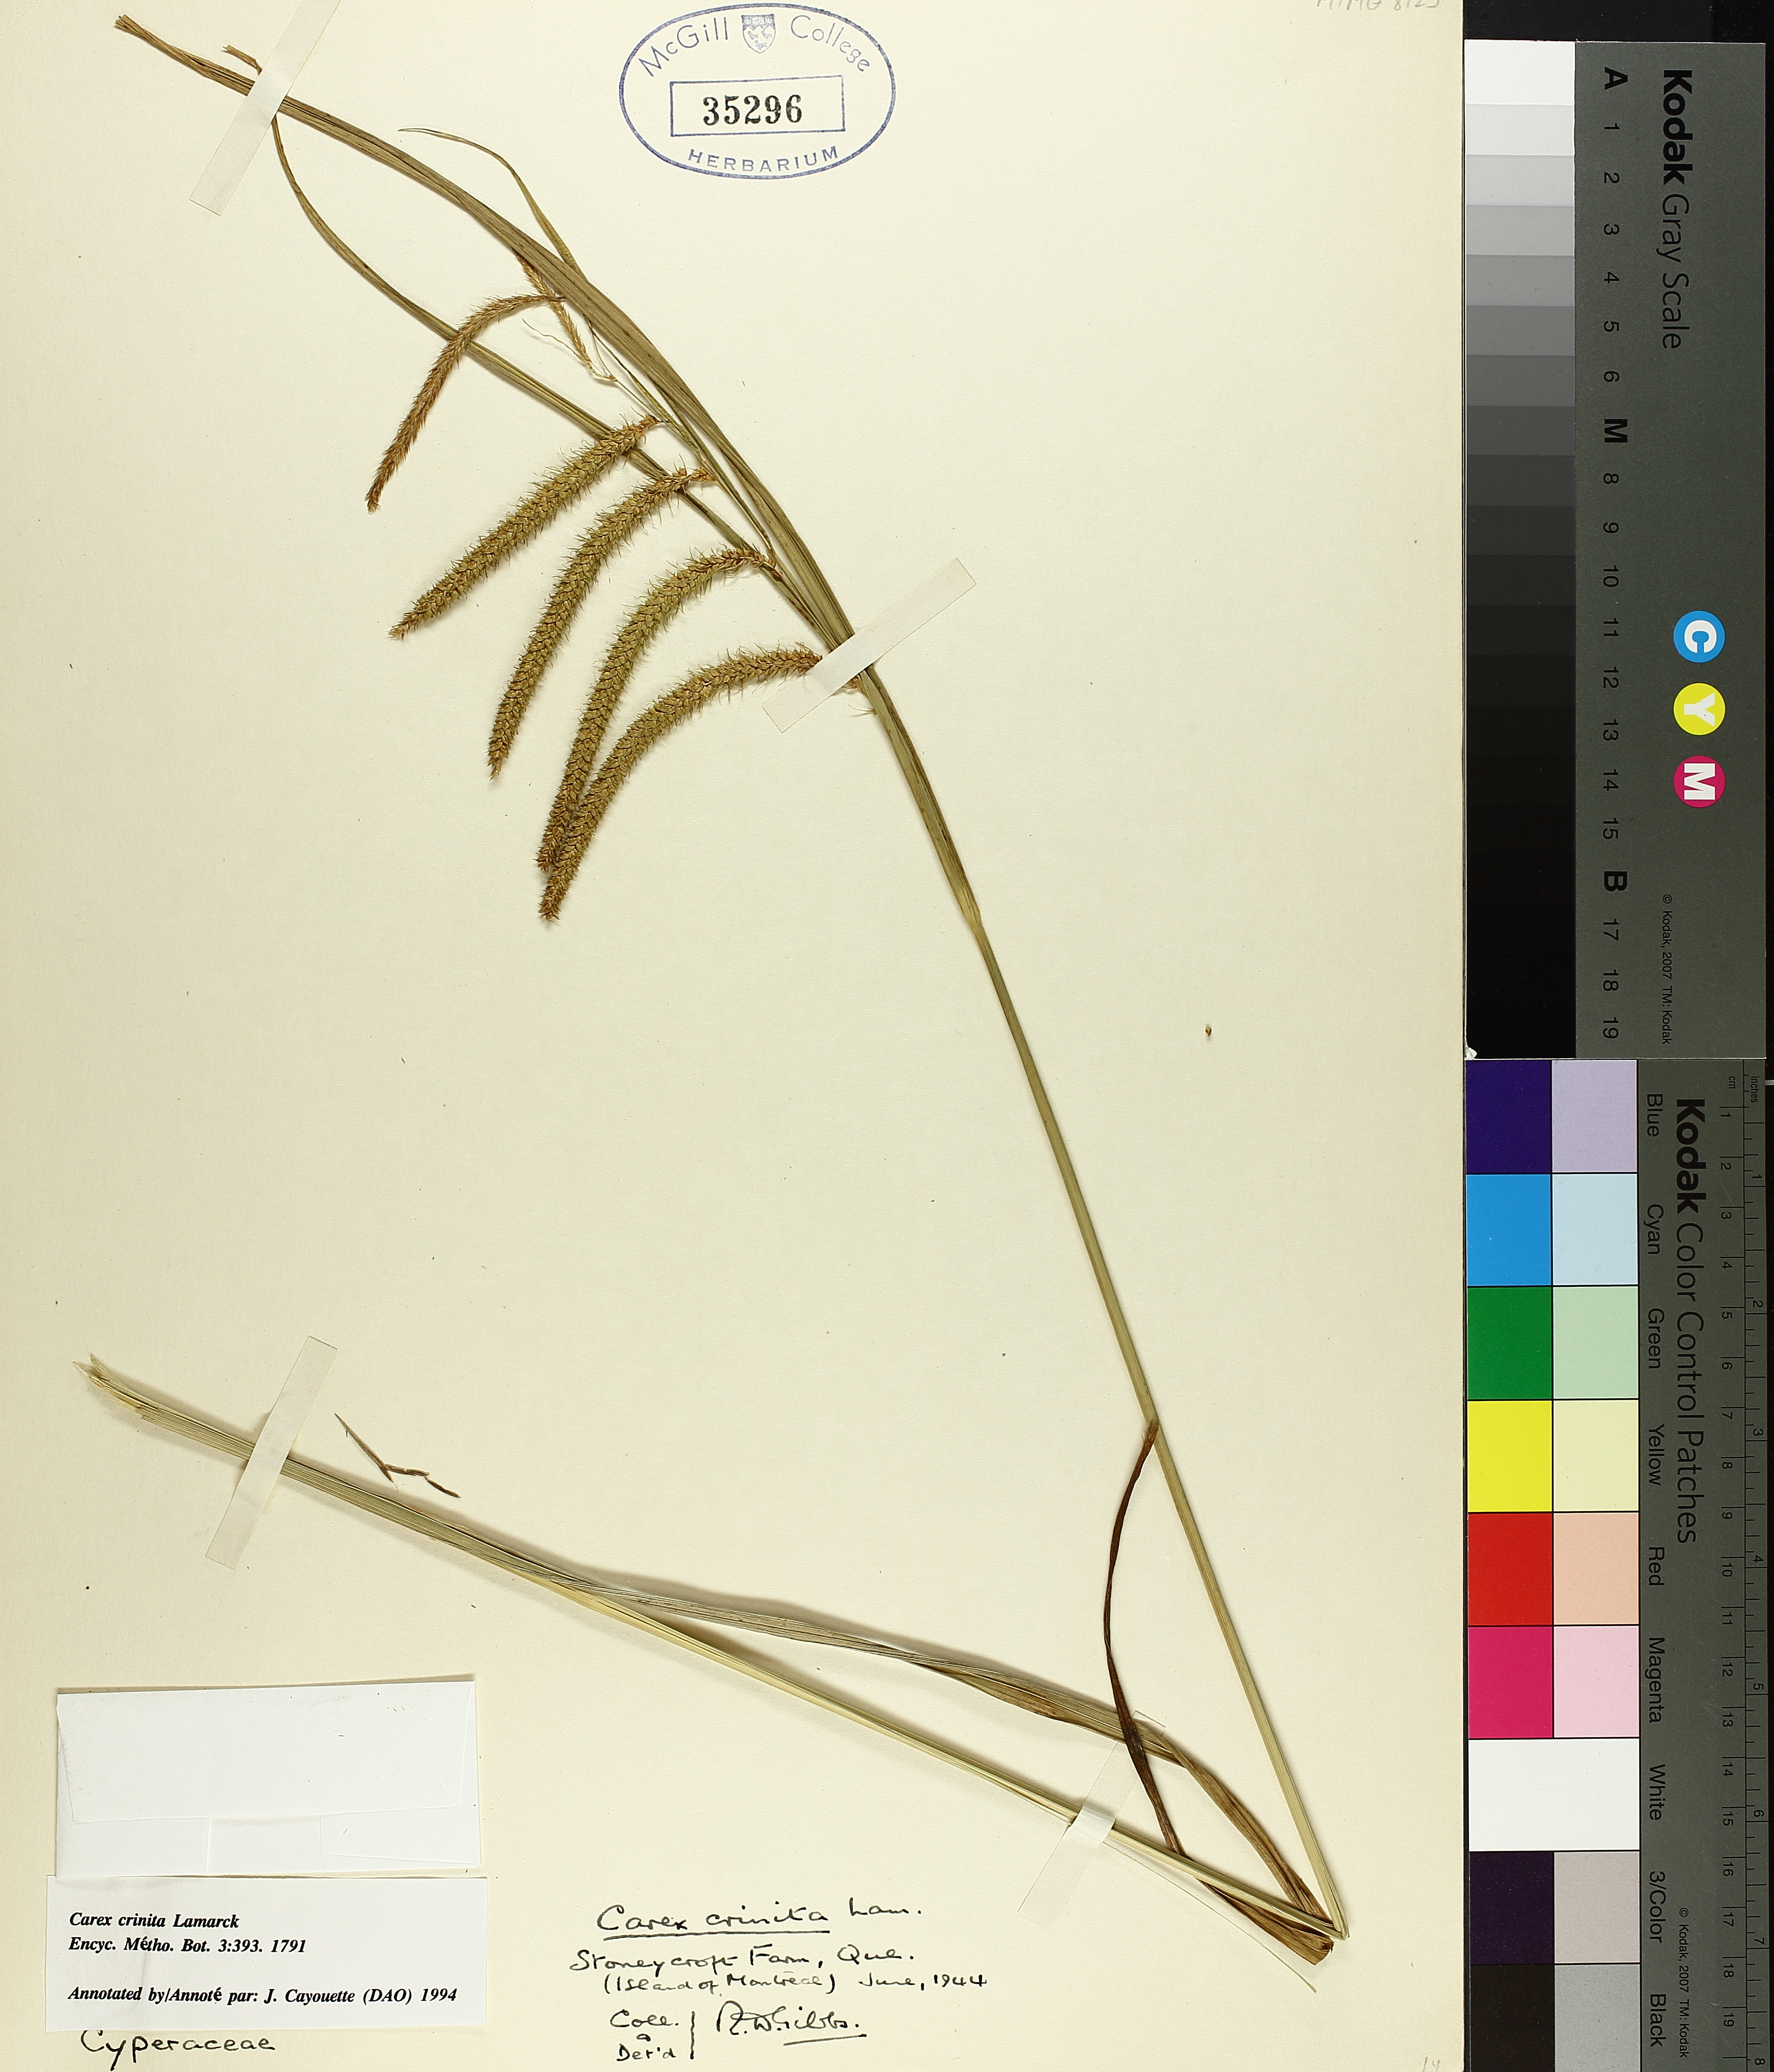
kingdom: Plantae
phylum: Tracheophyta
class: Liliopsida
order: Poales
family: Cyperaceae
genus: Carex
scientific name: Carex crinita
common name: Fringed sedge
